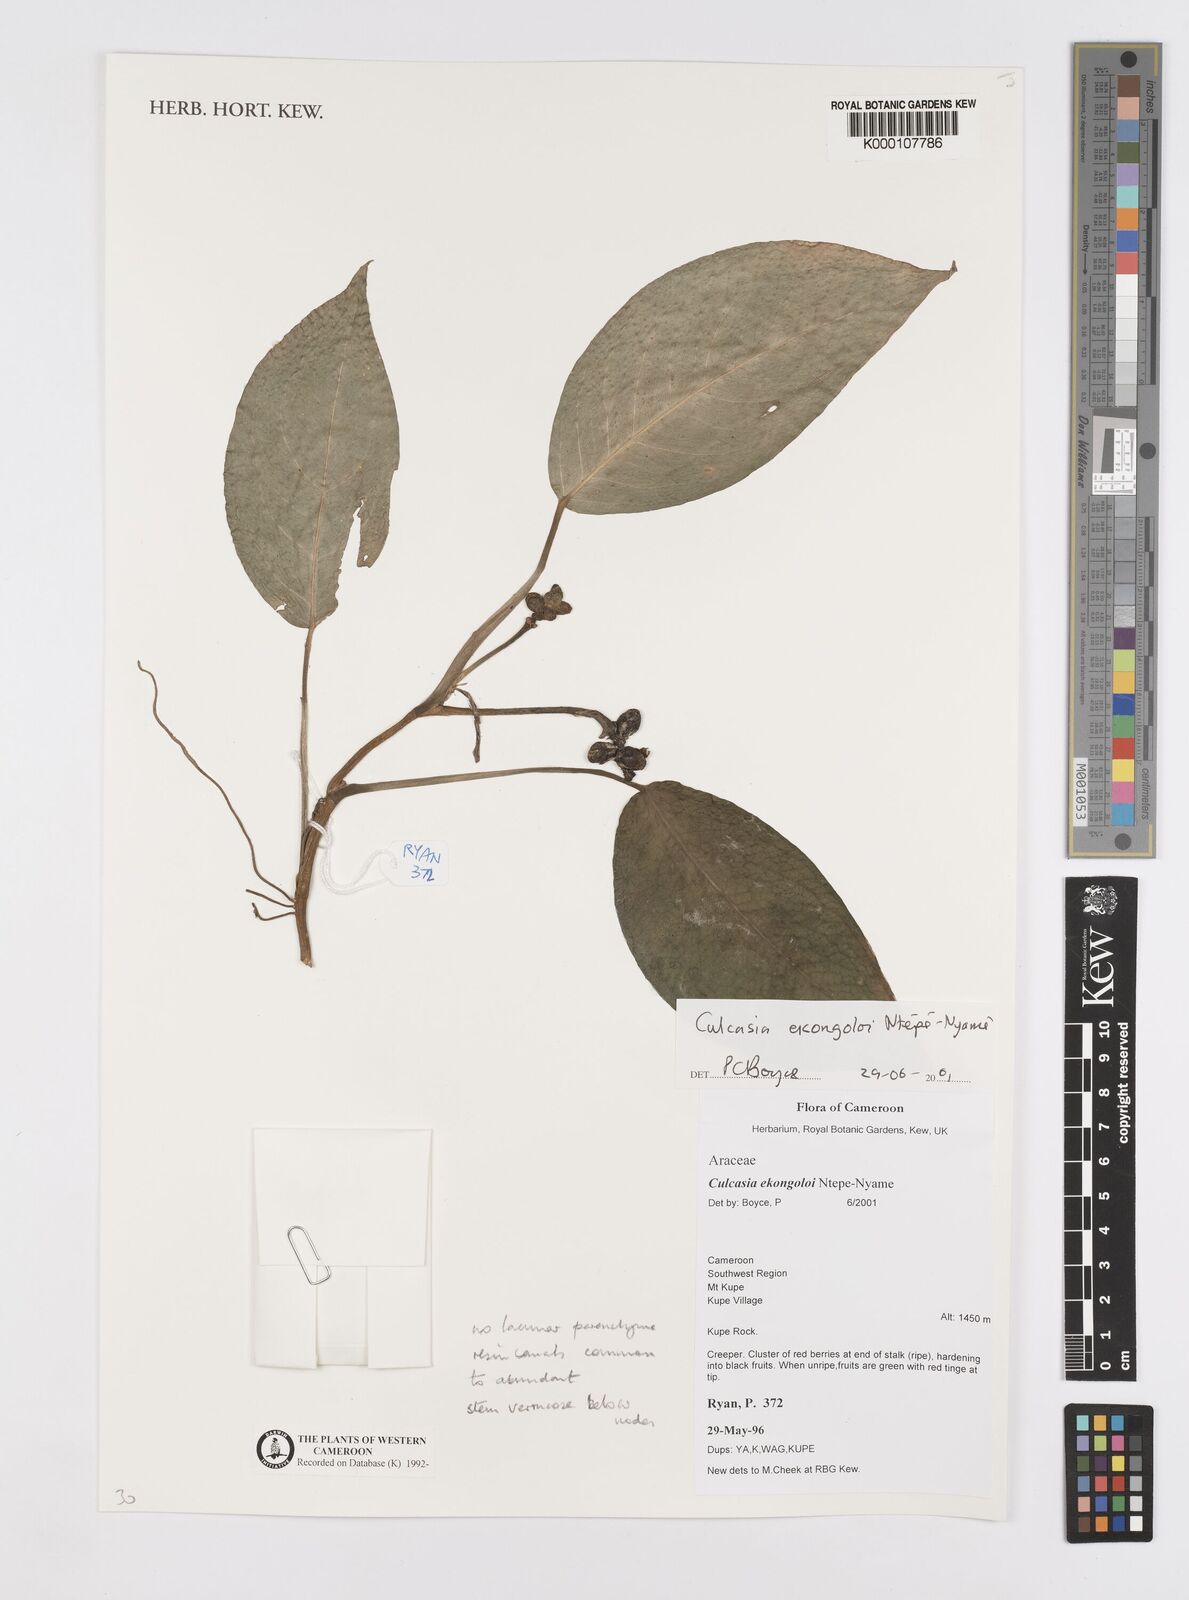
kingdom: Plantae
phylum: Tracheophyta
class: Liliopsida
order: Alismatales
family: Araceae
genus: Culcasia
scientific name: Culcasia ekongoloi
